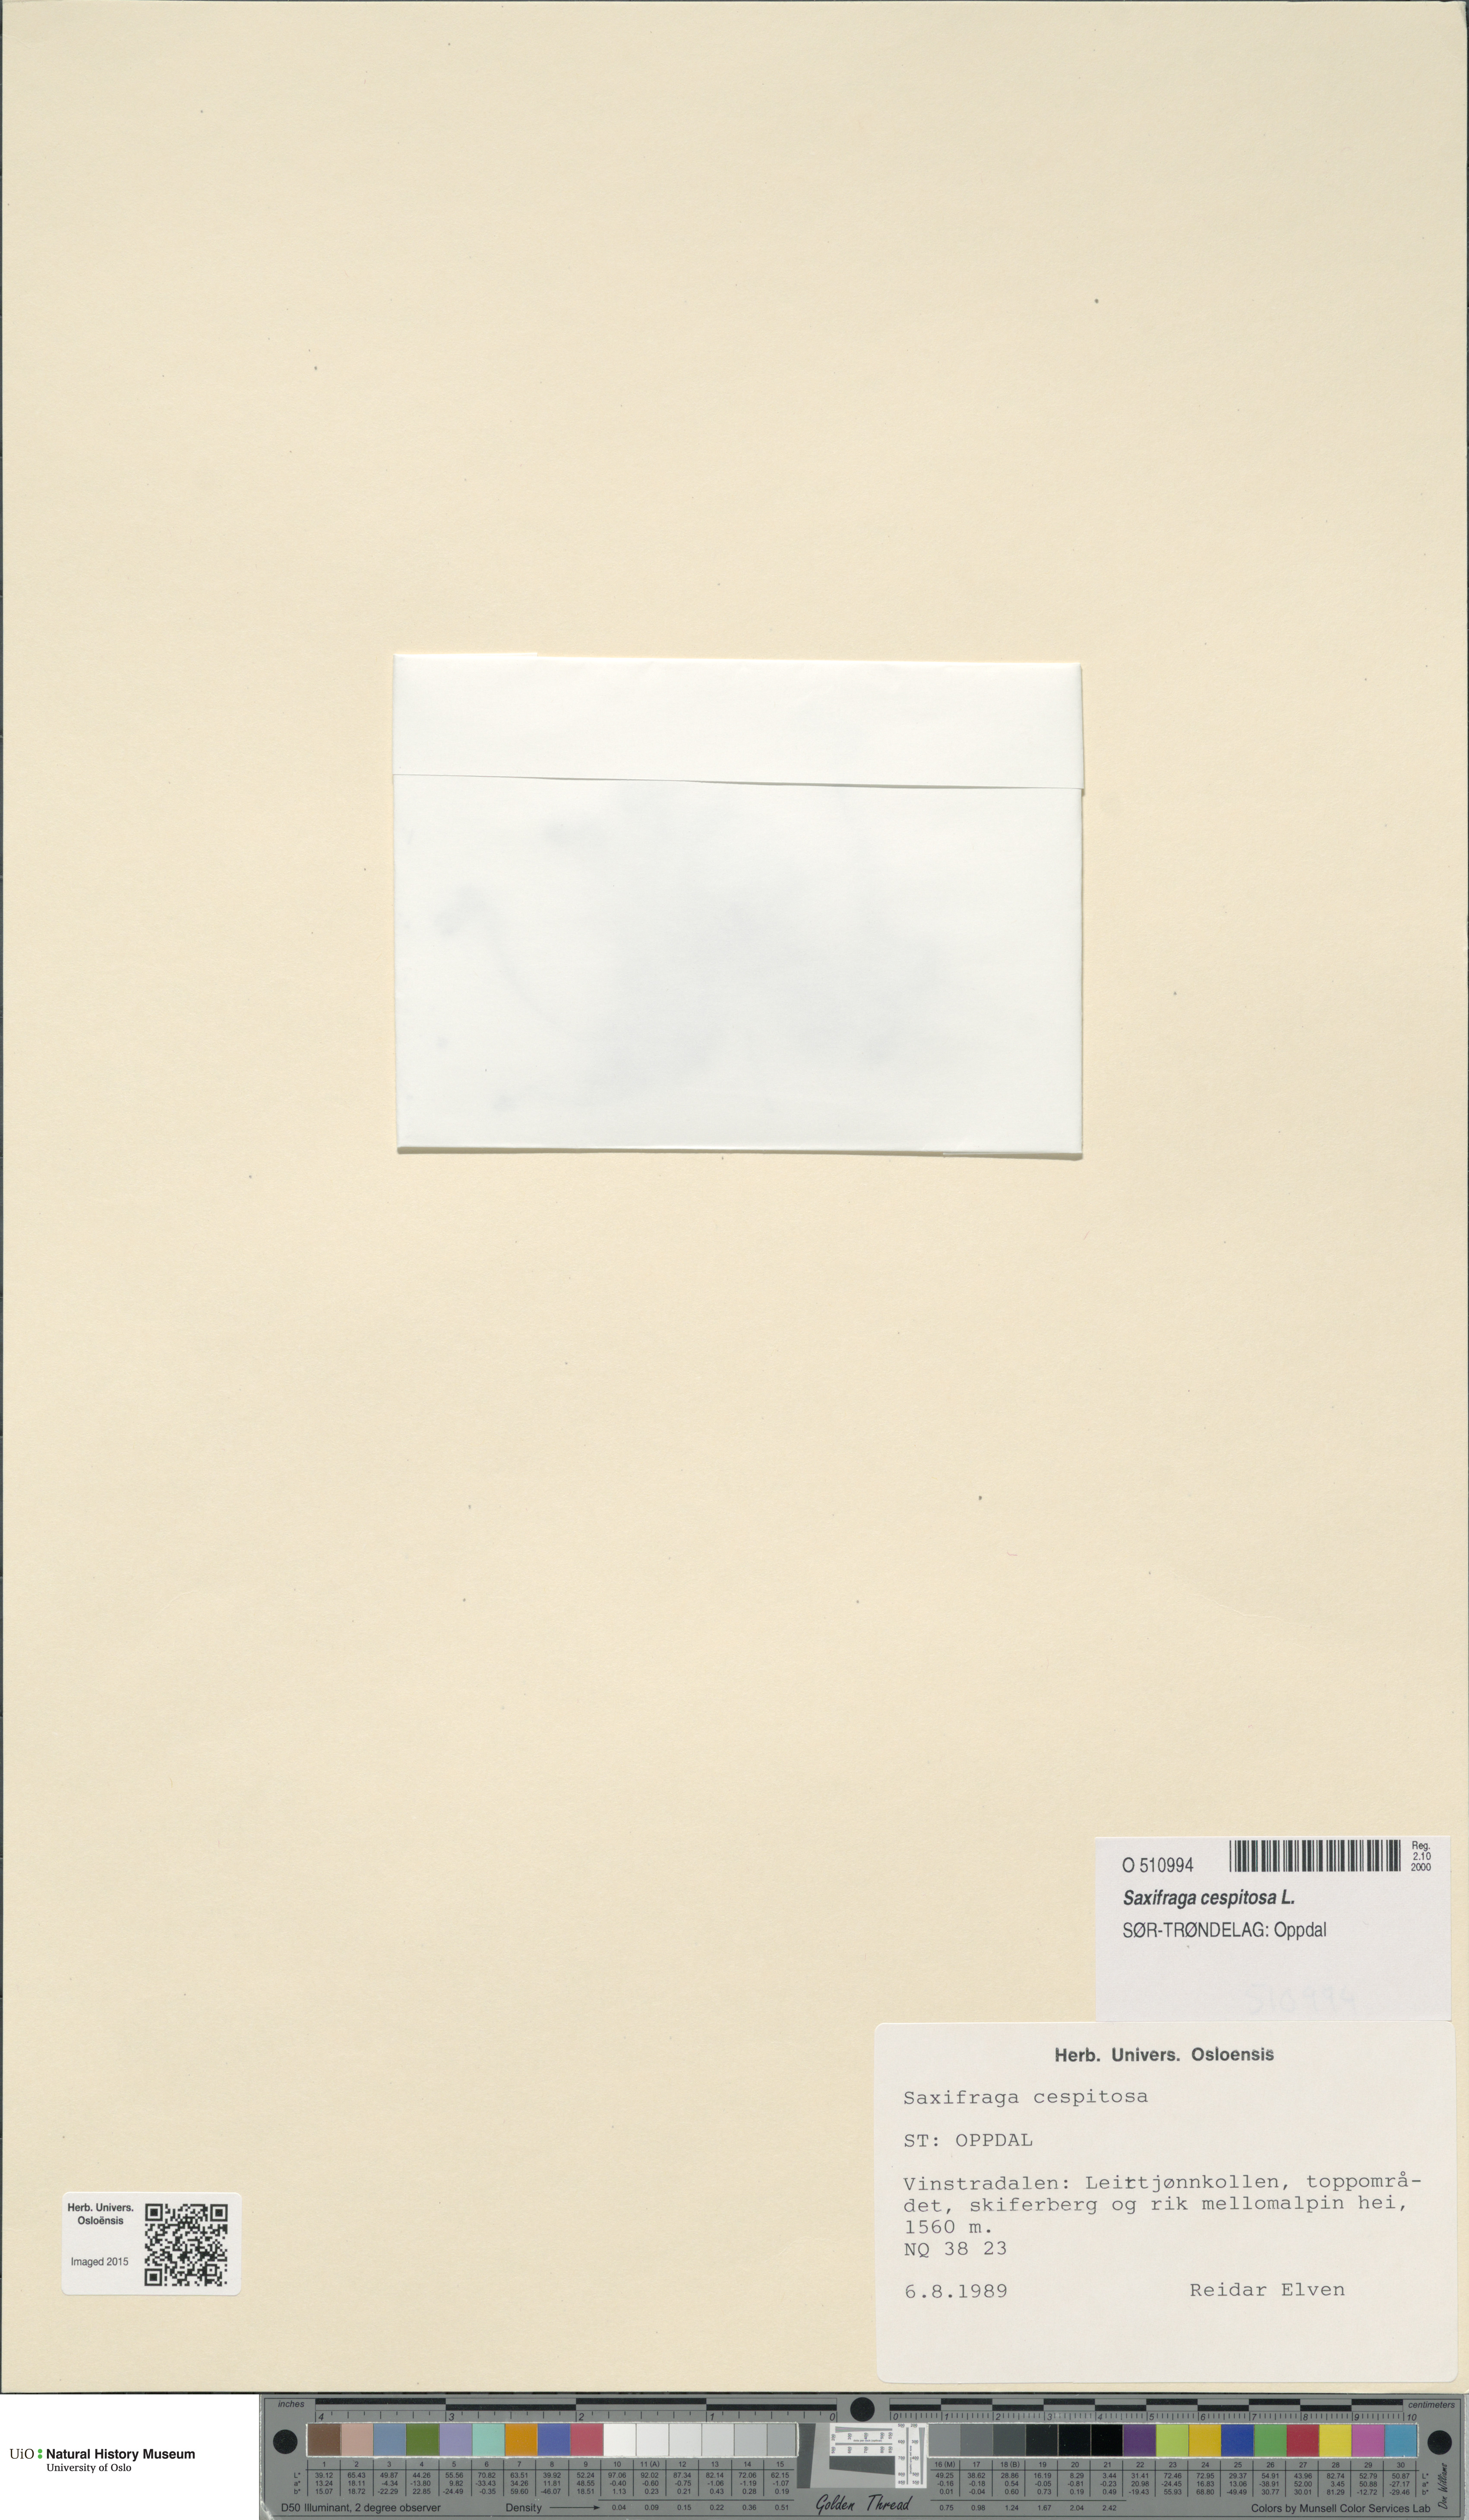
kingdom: Plantae
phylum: Tracheophyta
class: Magnoliopsida
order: Saxifragales
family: Saxifragaceae
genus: Saxifraga
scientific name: Saxifraga cespitosa
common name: Tufted saxifrage
